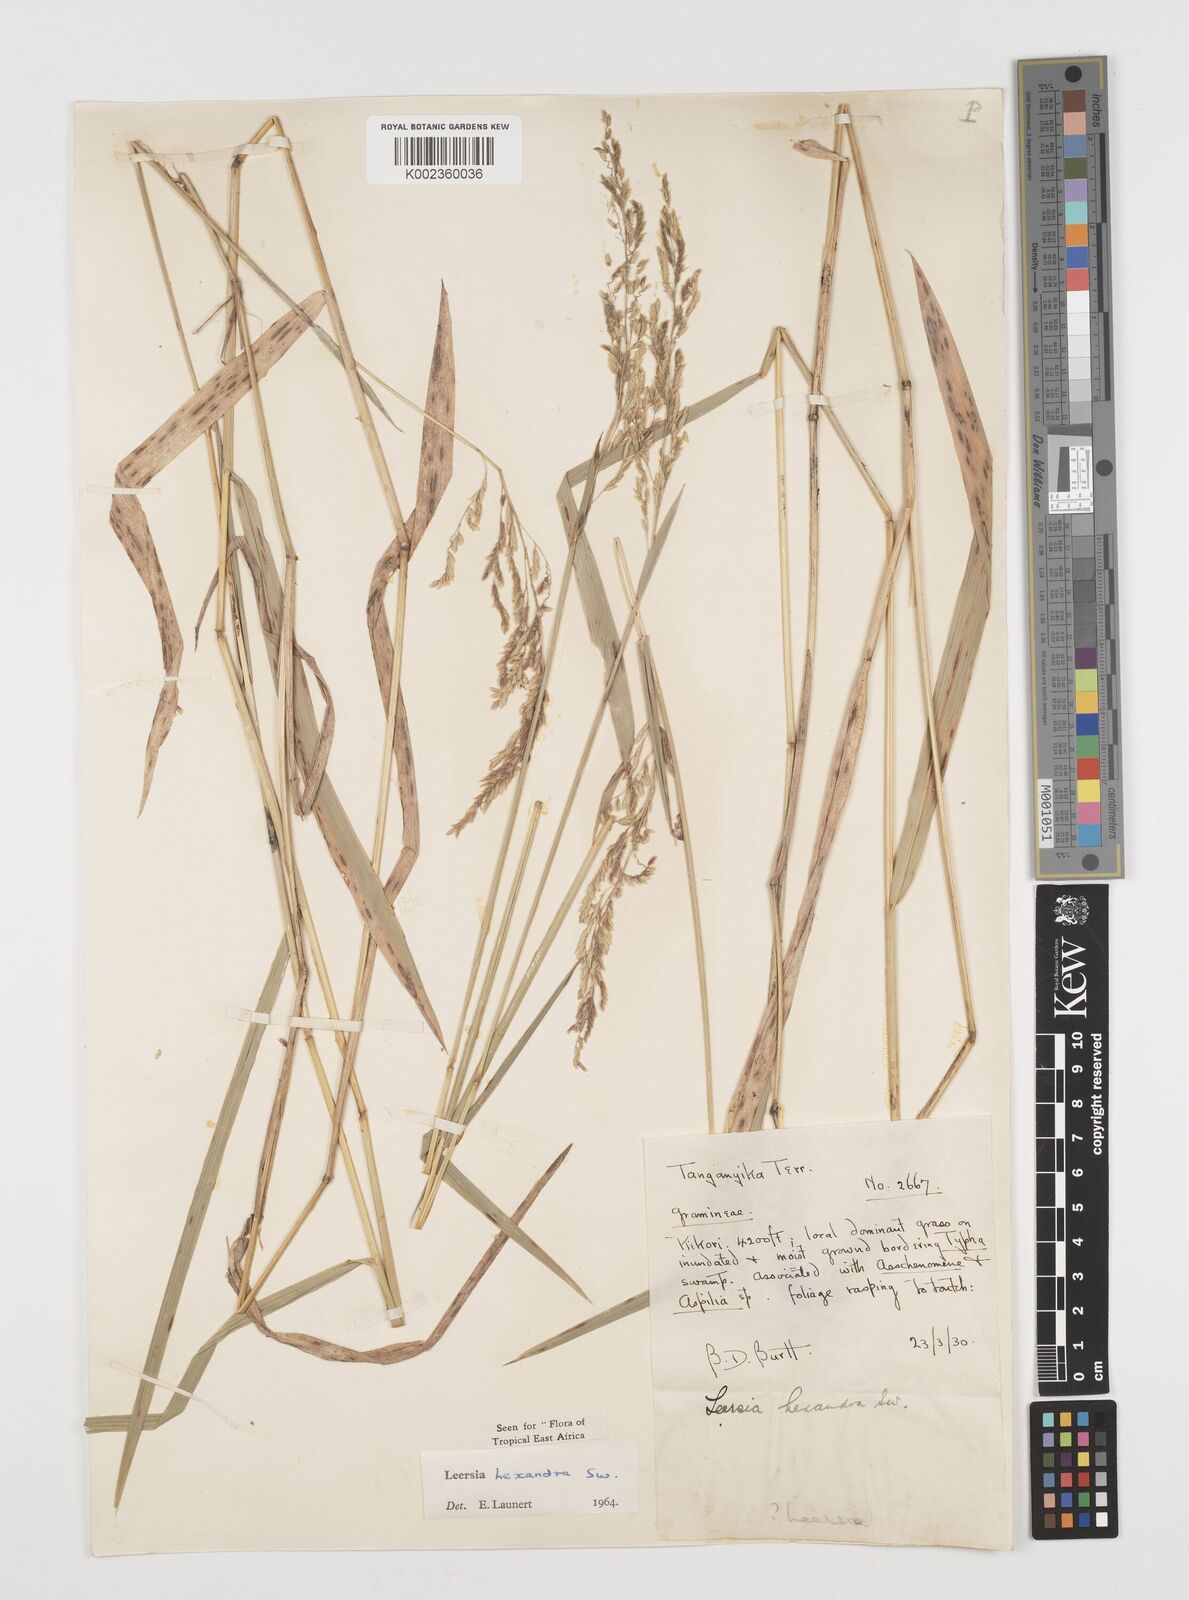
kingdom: Plantae
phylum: Tracheophyta
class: Liliopsida
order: Poales
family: Poaceae
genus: Leersia
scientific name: Leersia hexandra
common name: Southern cut grass
